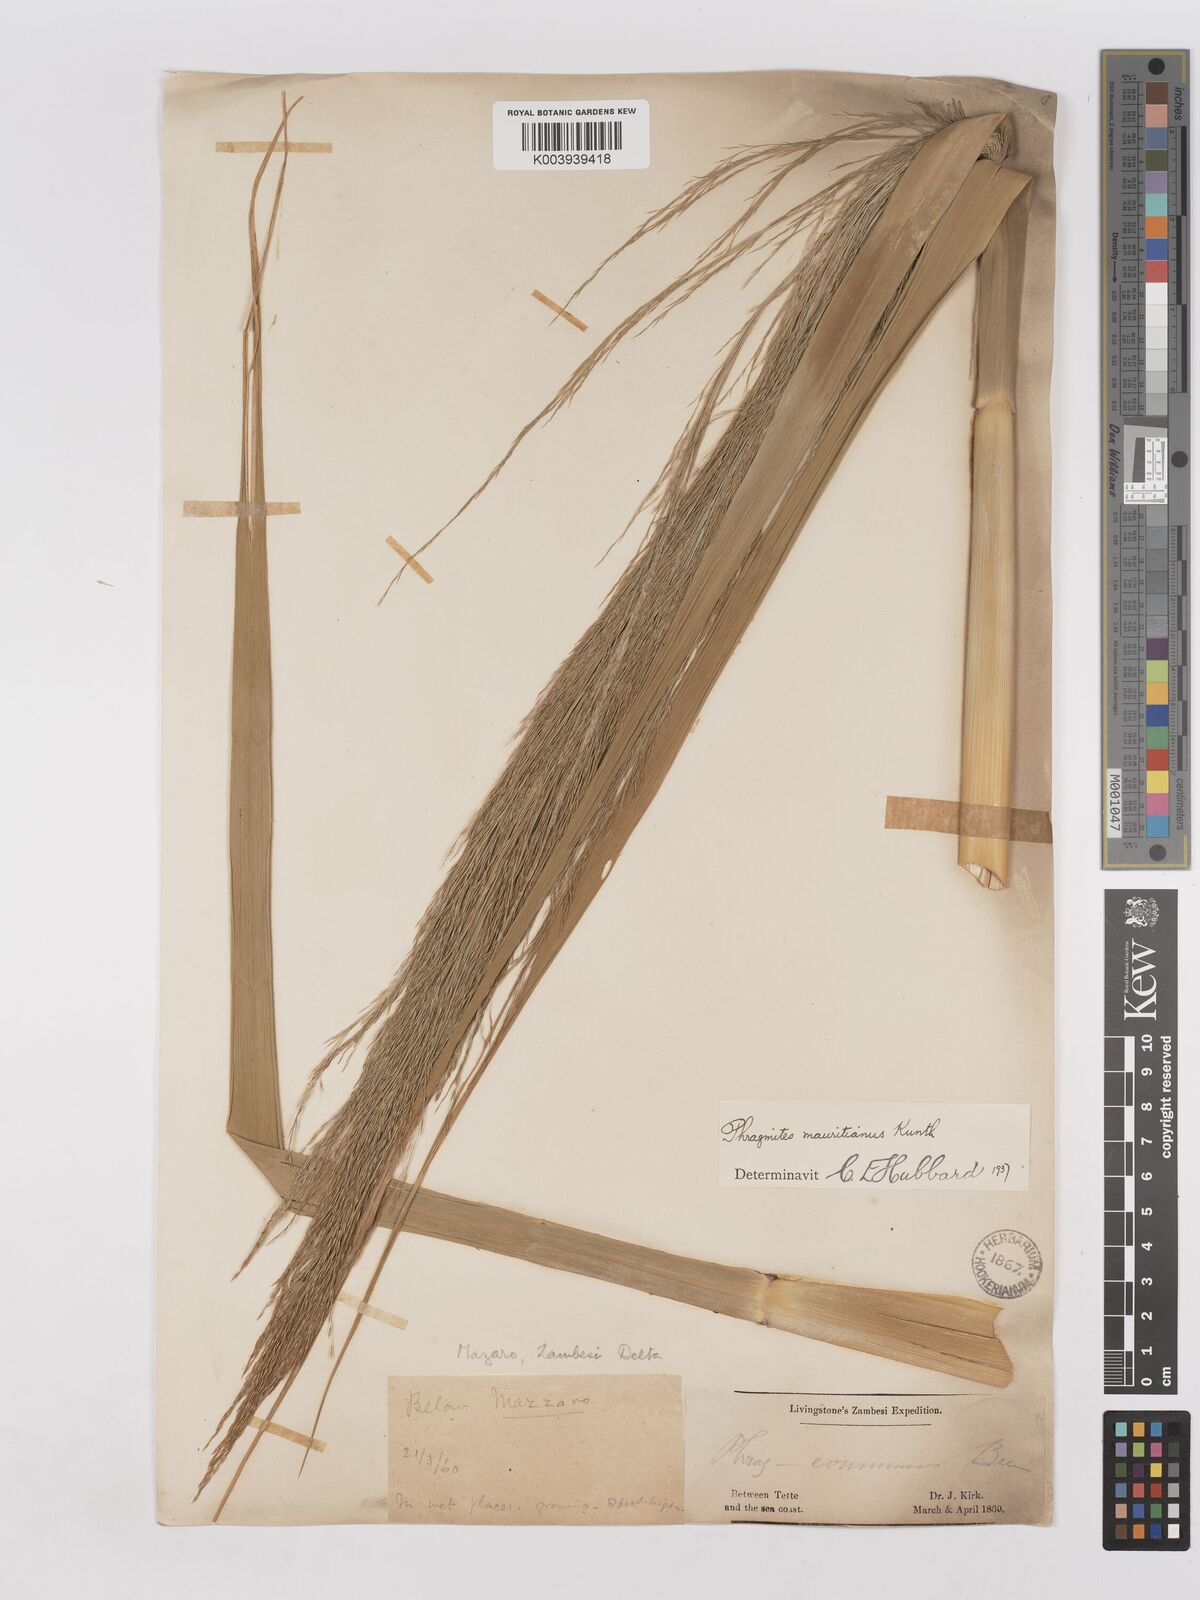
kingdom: Plantae
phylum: Tracheophyta
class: Liliopsida
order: Poales
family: Poaceae
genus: Phragmites
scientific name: Phragmites mauritianus
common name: Reed grass
